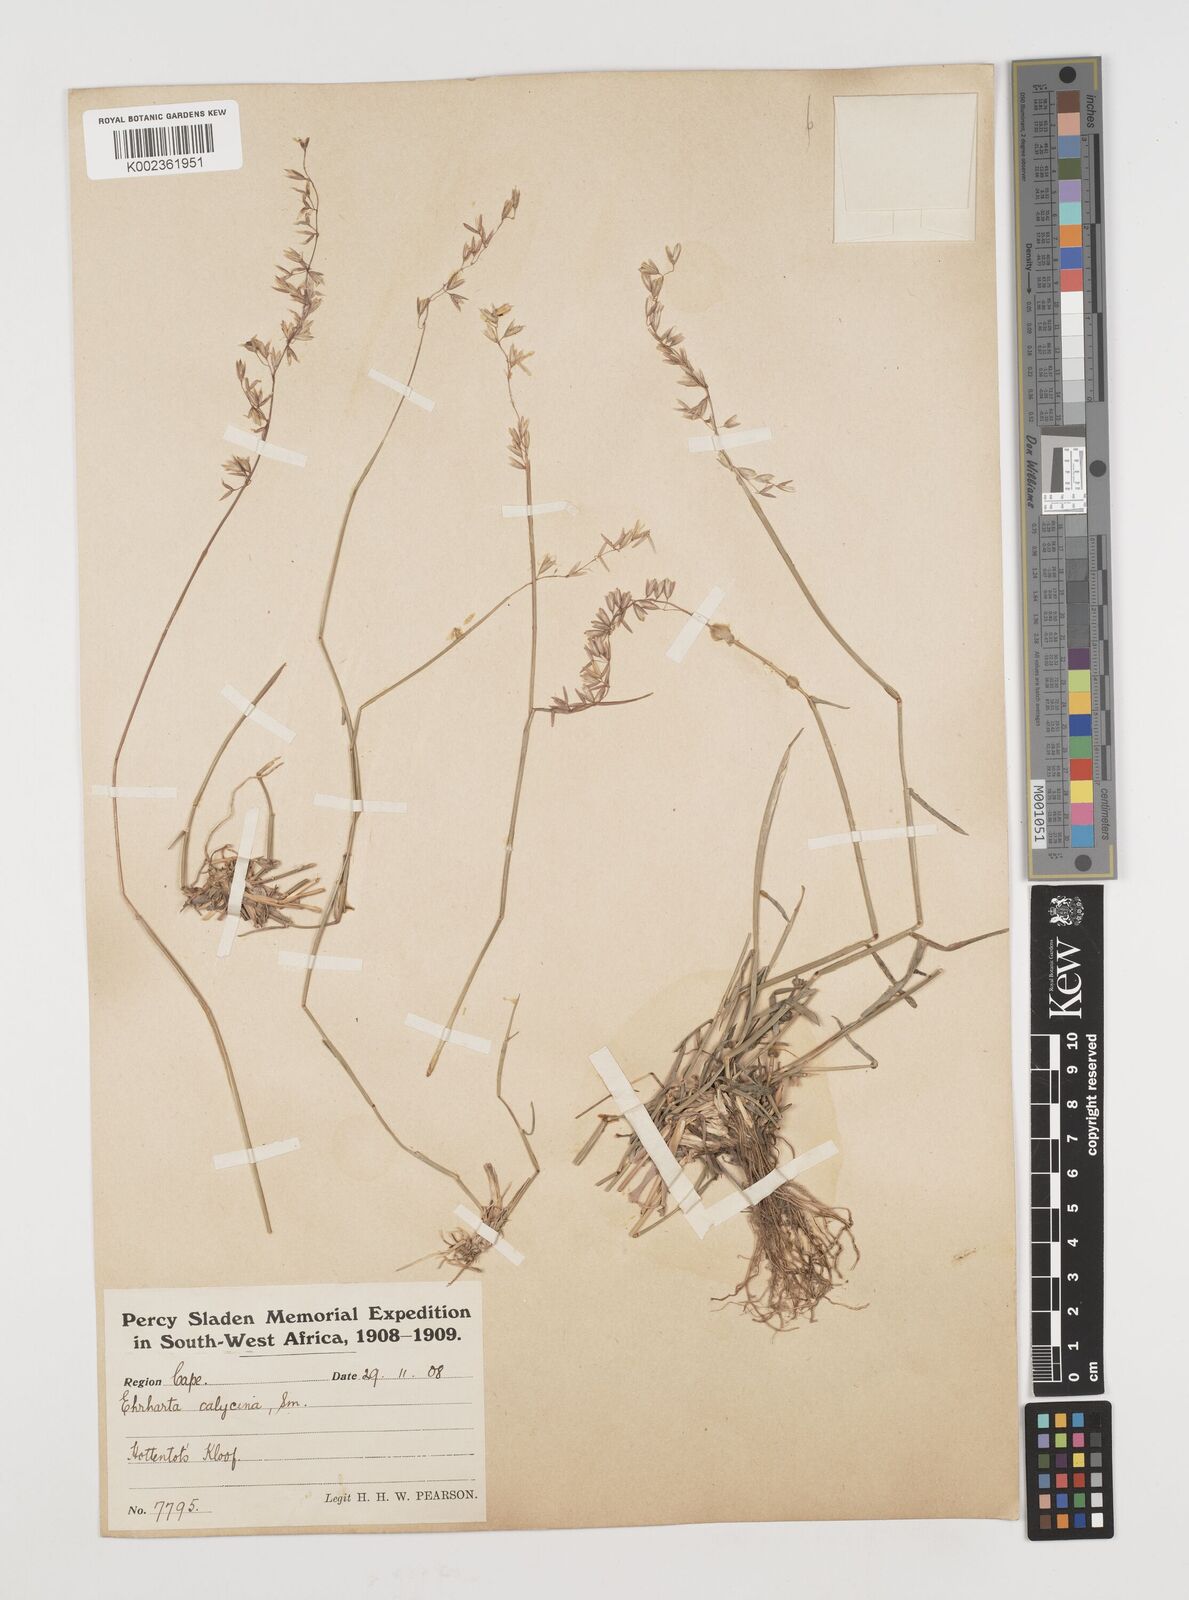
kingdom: Plantae
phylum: Tracheophyta
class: Liliopsida
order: Poales
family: Poaceae
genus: Ehrharta
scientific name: Ehrharta calycina
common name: Perennial veldtgrass
